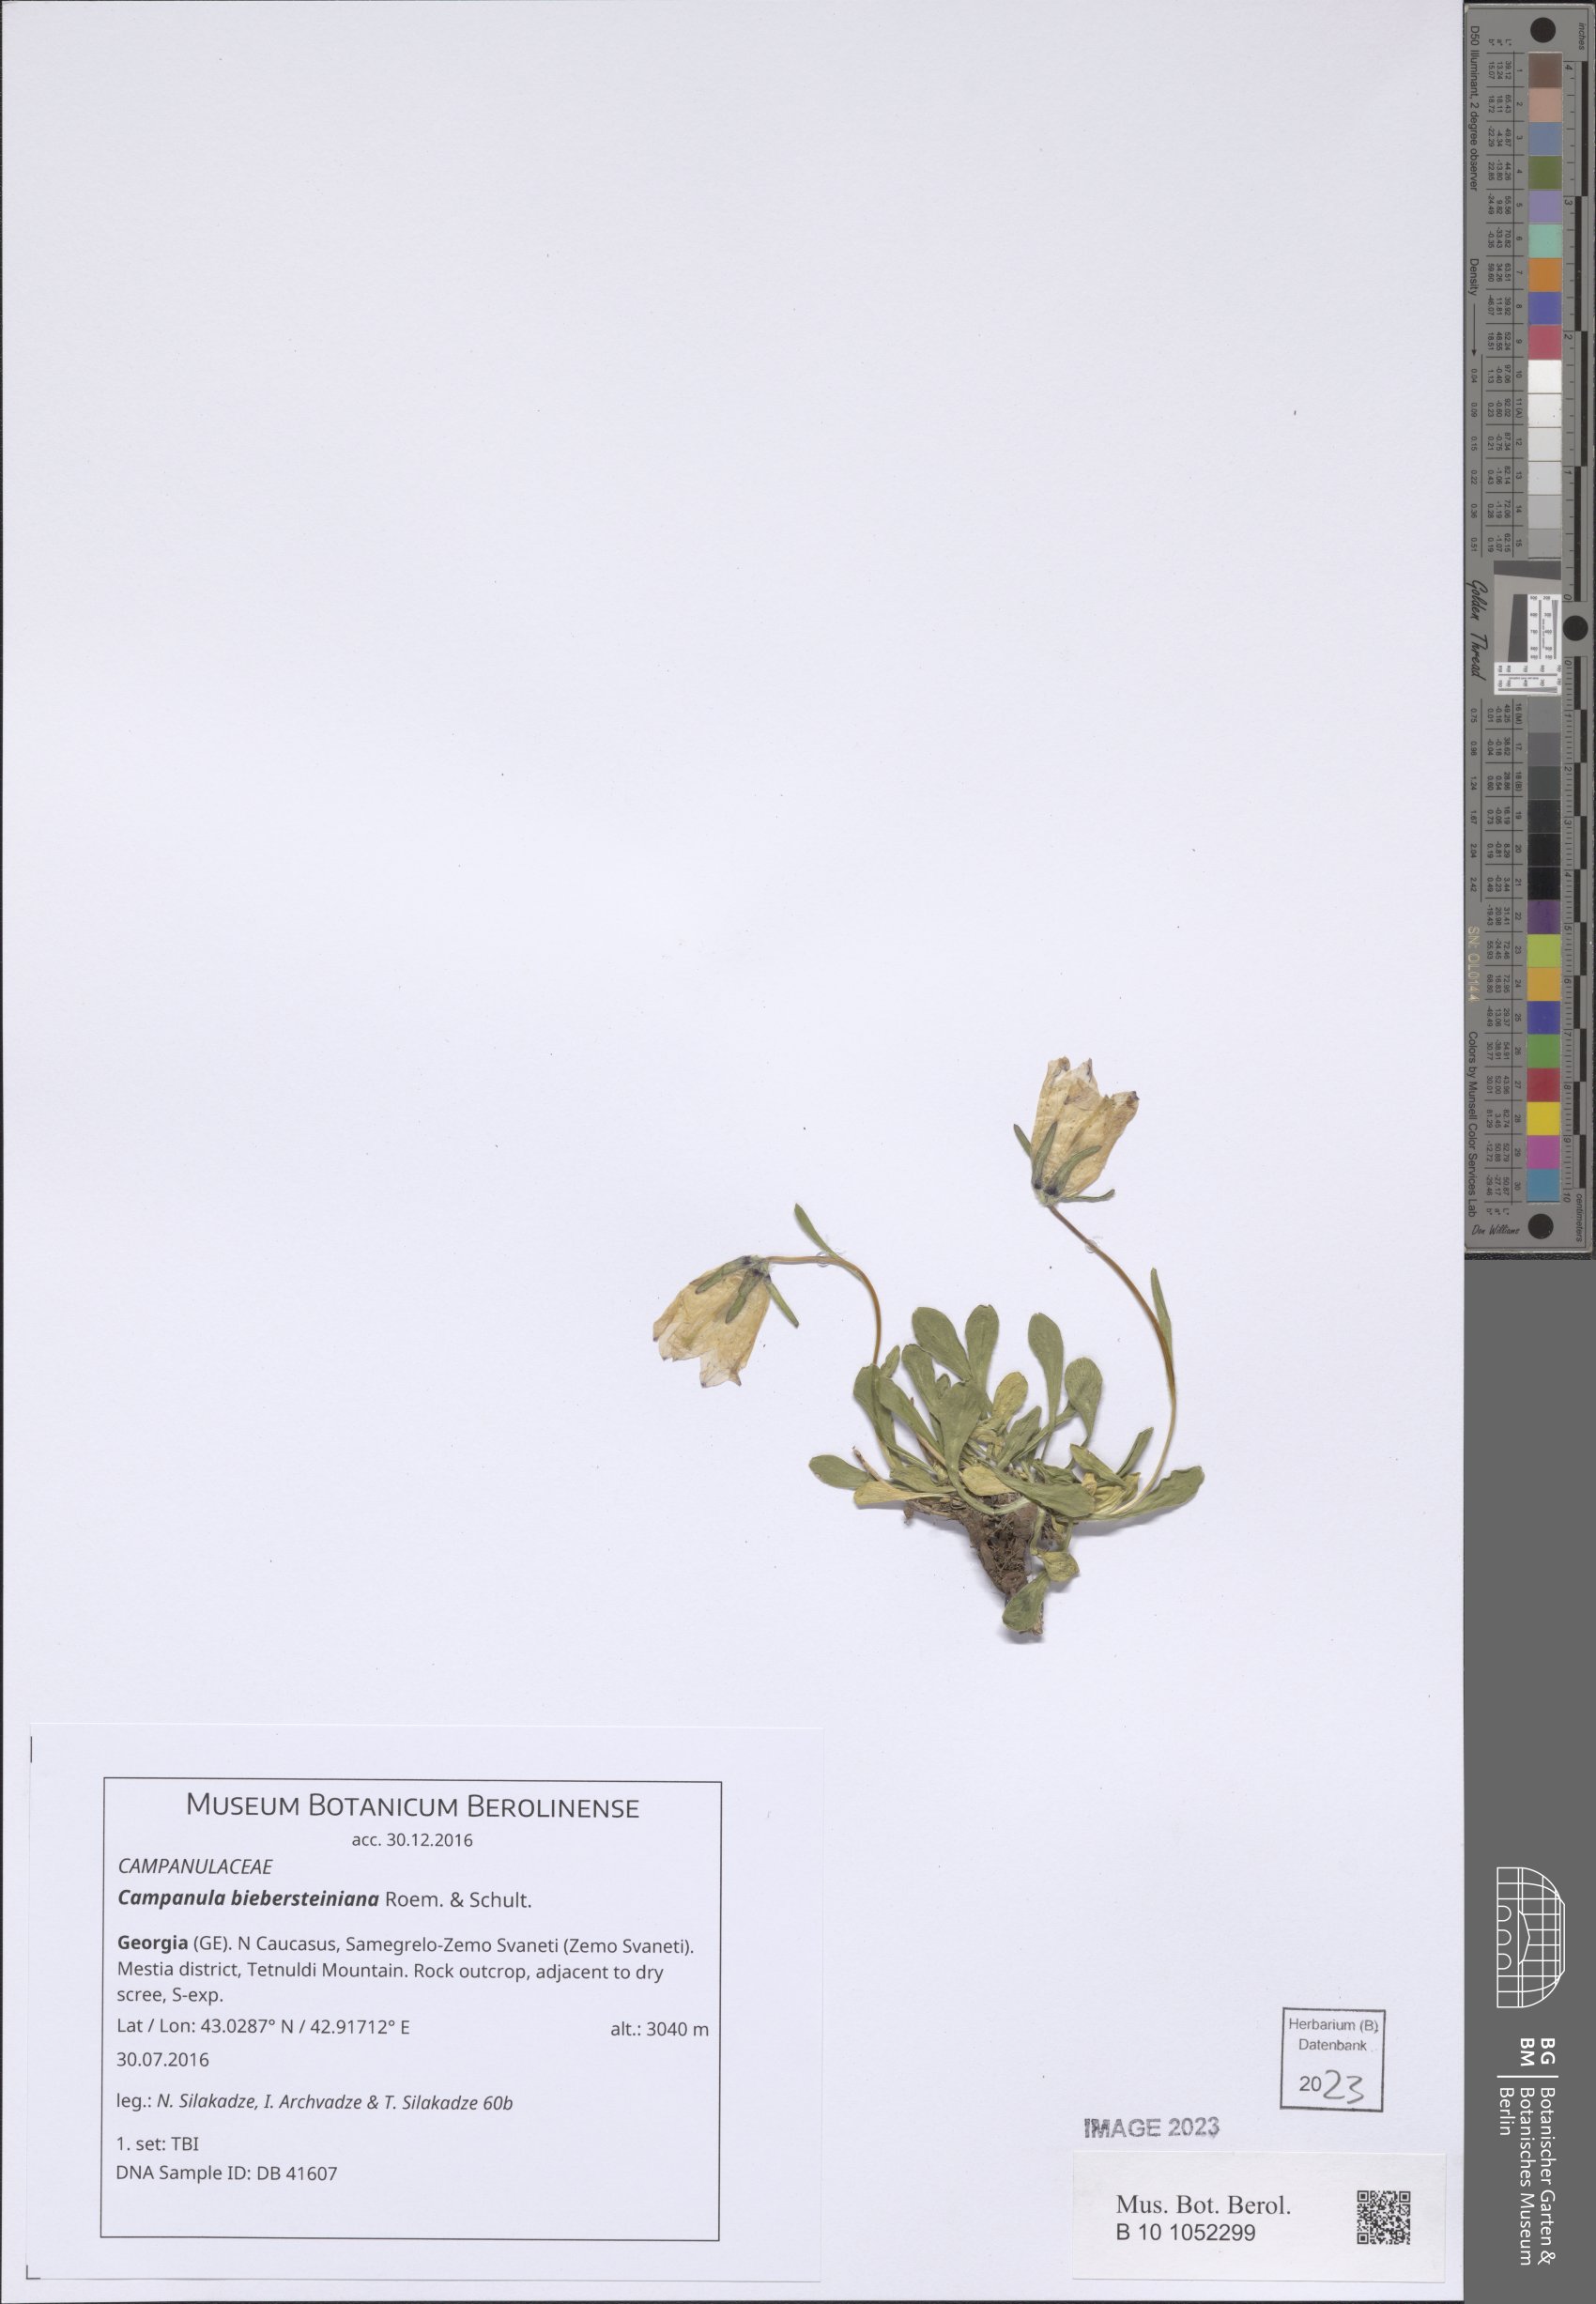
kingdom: Plantae
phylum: Tracheophyta
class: Magnoliopsida
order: Asterales
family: Campanulaceae
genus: Campanula
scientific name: Campanula tridentata
